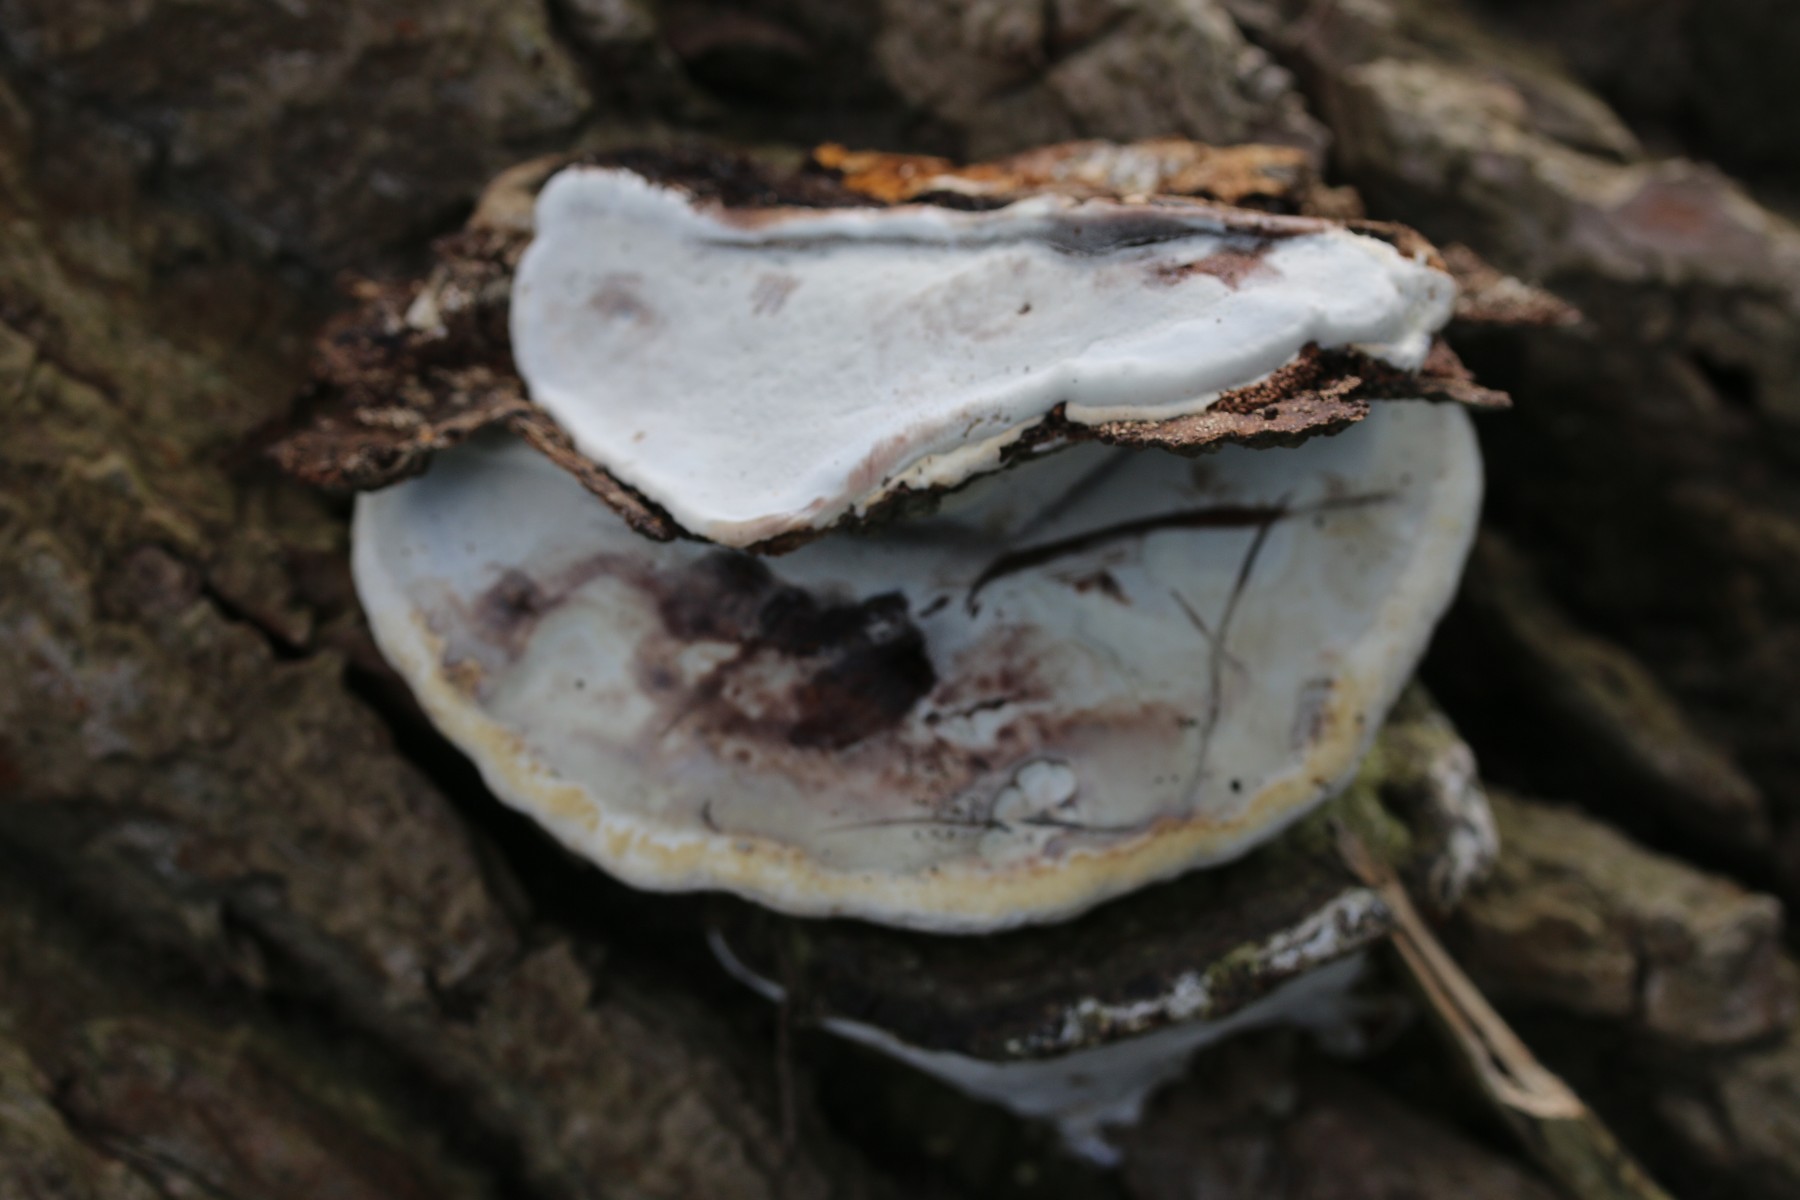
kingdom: Fungi
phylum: Basidiomycota
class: Agaricomycetes
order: Polyporales
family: Polyporaceae
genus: Ganoderma
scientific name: Ganoderma applanatum
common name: flad lakporesvamp
